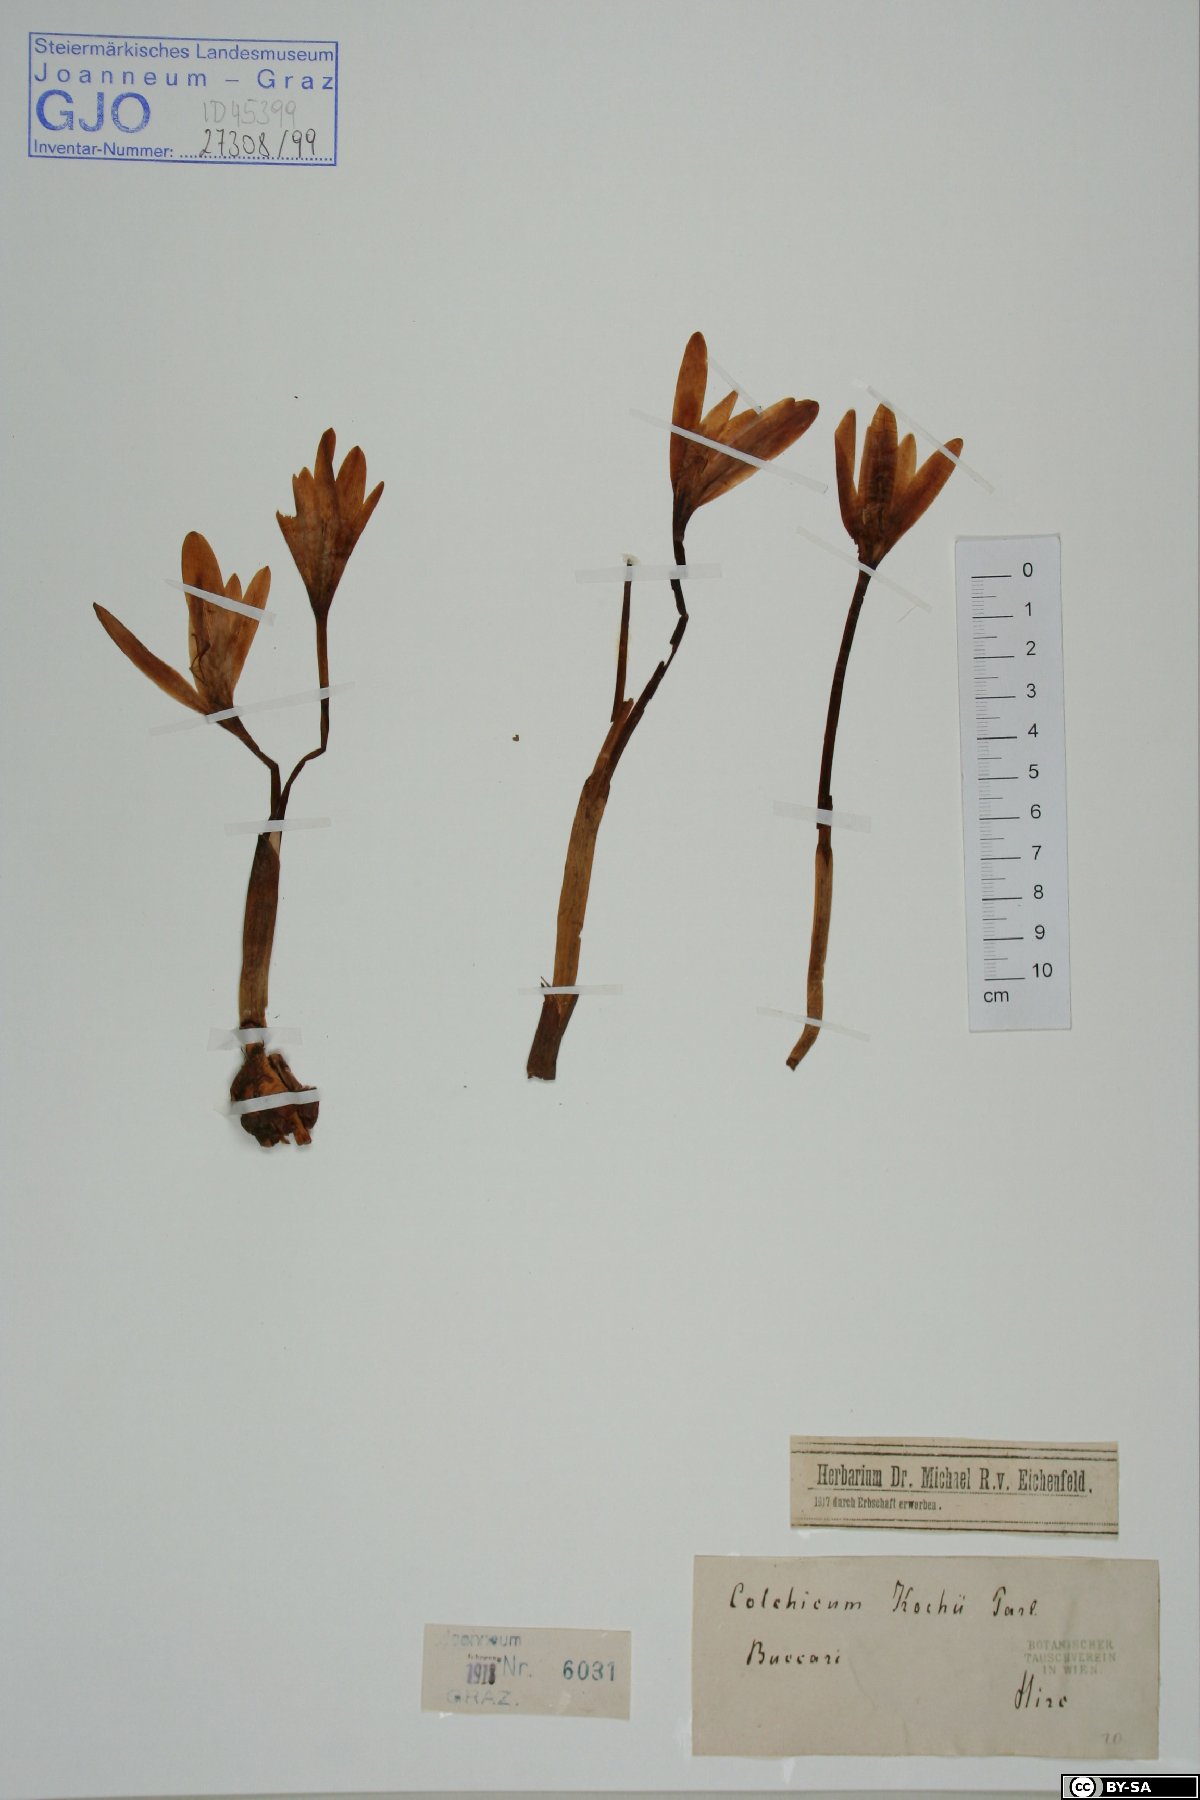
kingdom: Plantae
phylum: Tracheophyta
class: Liliopsida
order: Liliales
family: Colchicaceae
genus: Colchicum
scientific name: Colchicum haynaldii
